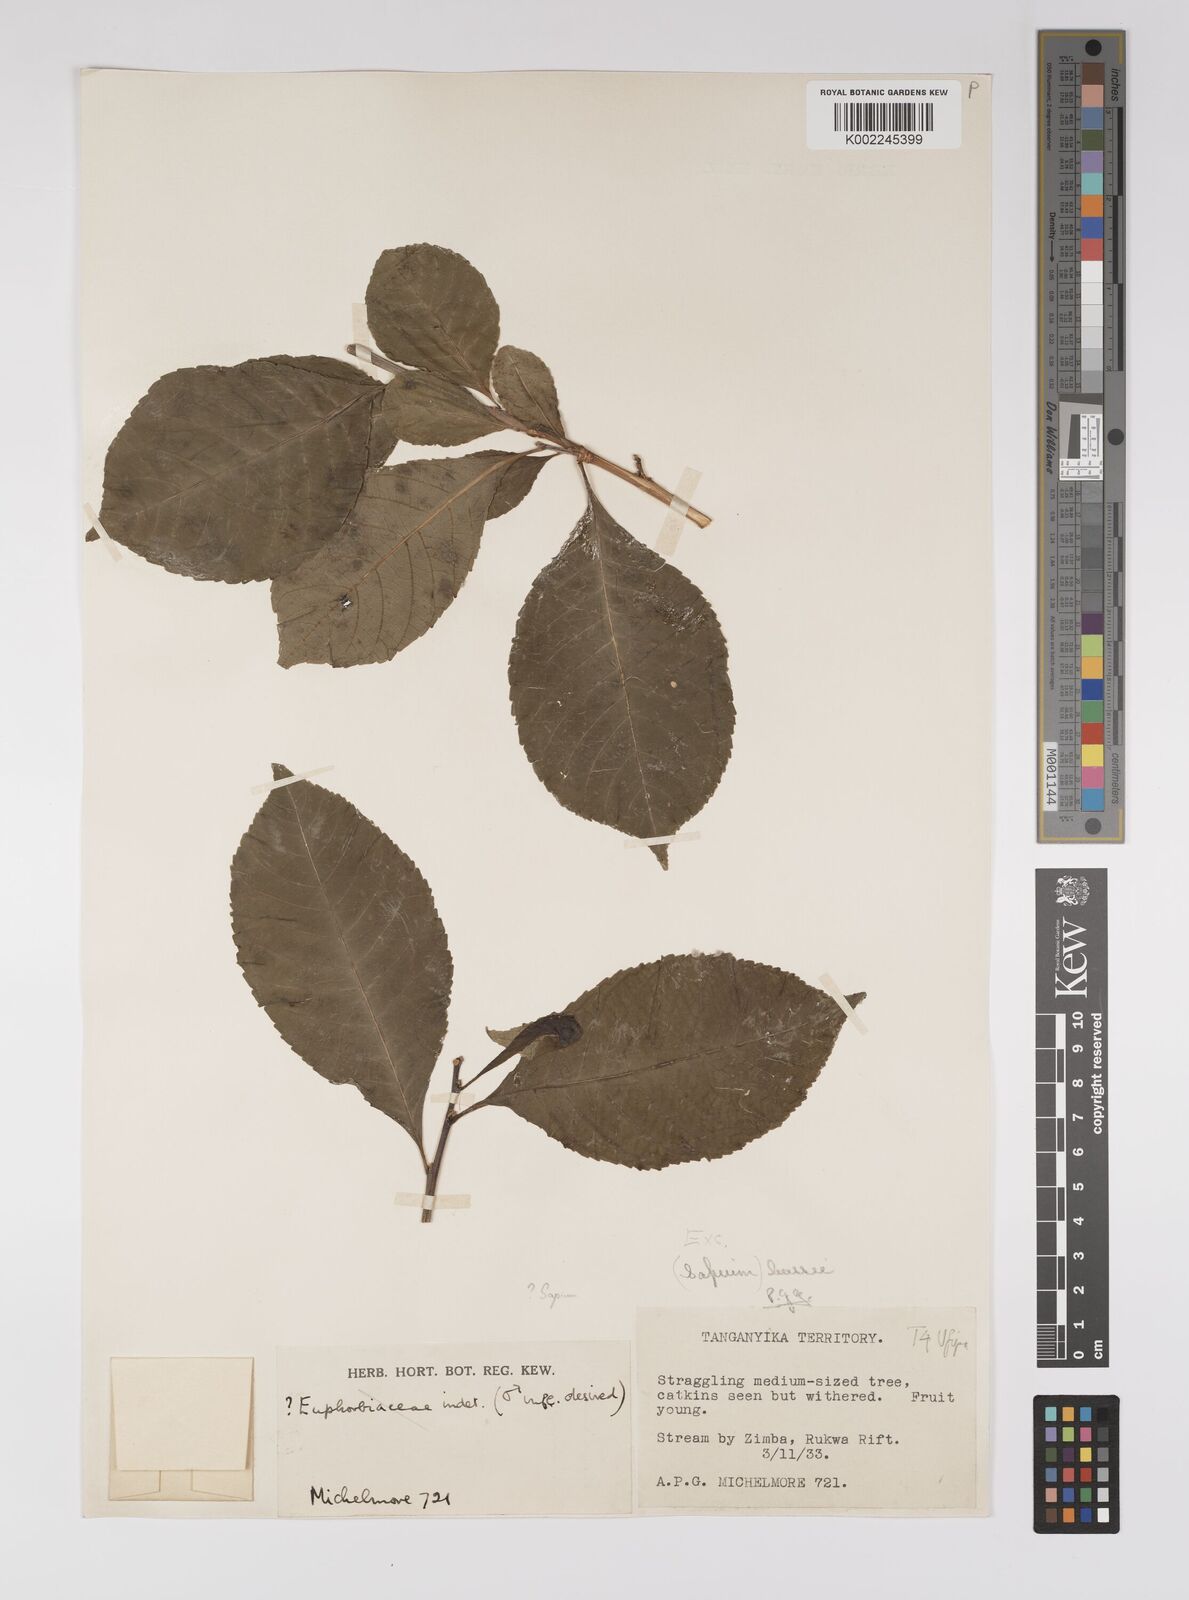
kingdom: Plantae
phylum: Tracheophyta
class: Magnoliopsida
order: Malpighiales
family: Euphorbiaceae
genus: Excoecaria
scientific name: Excoecaria bussei
